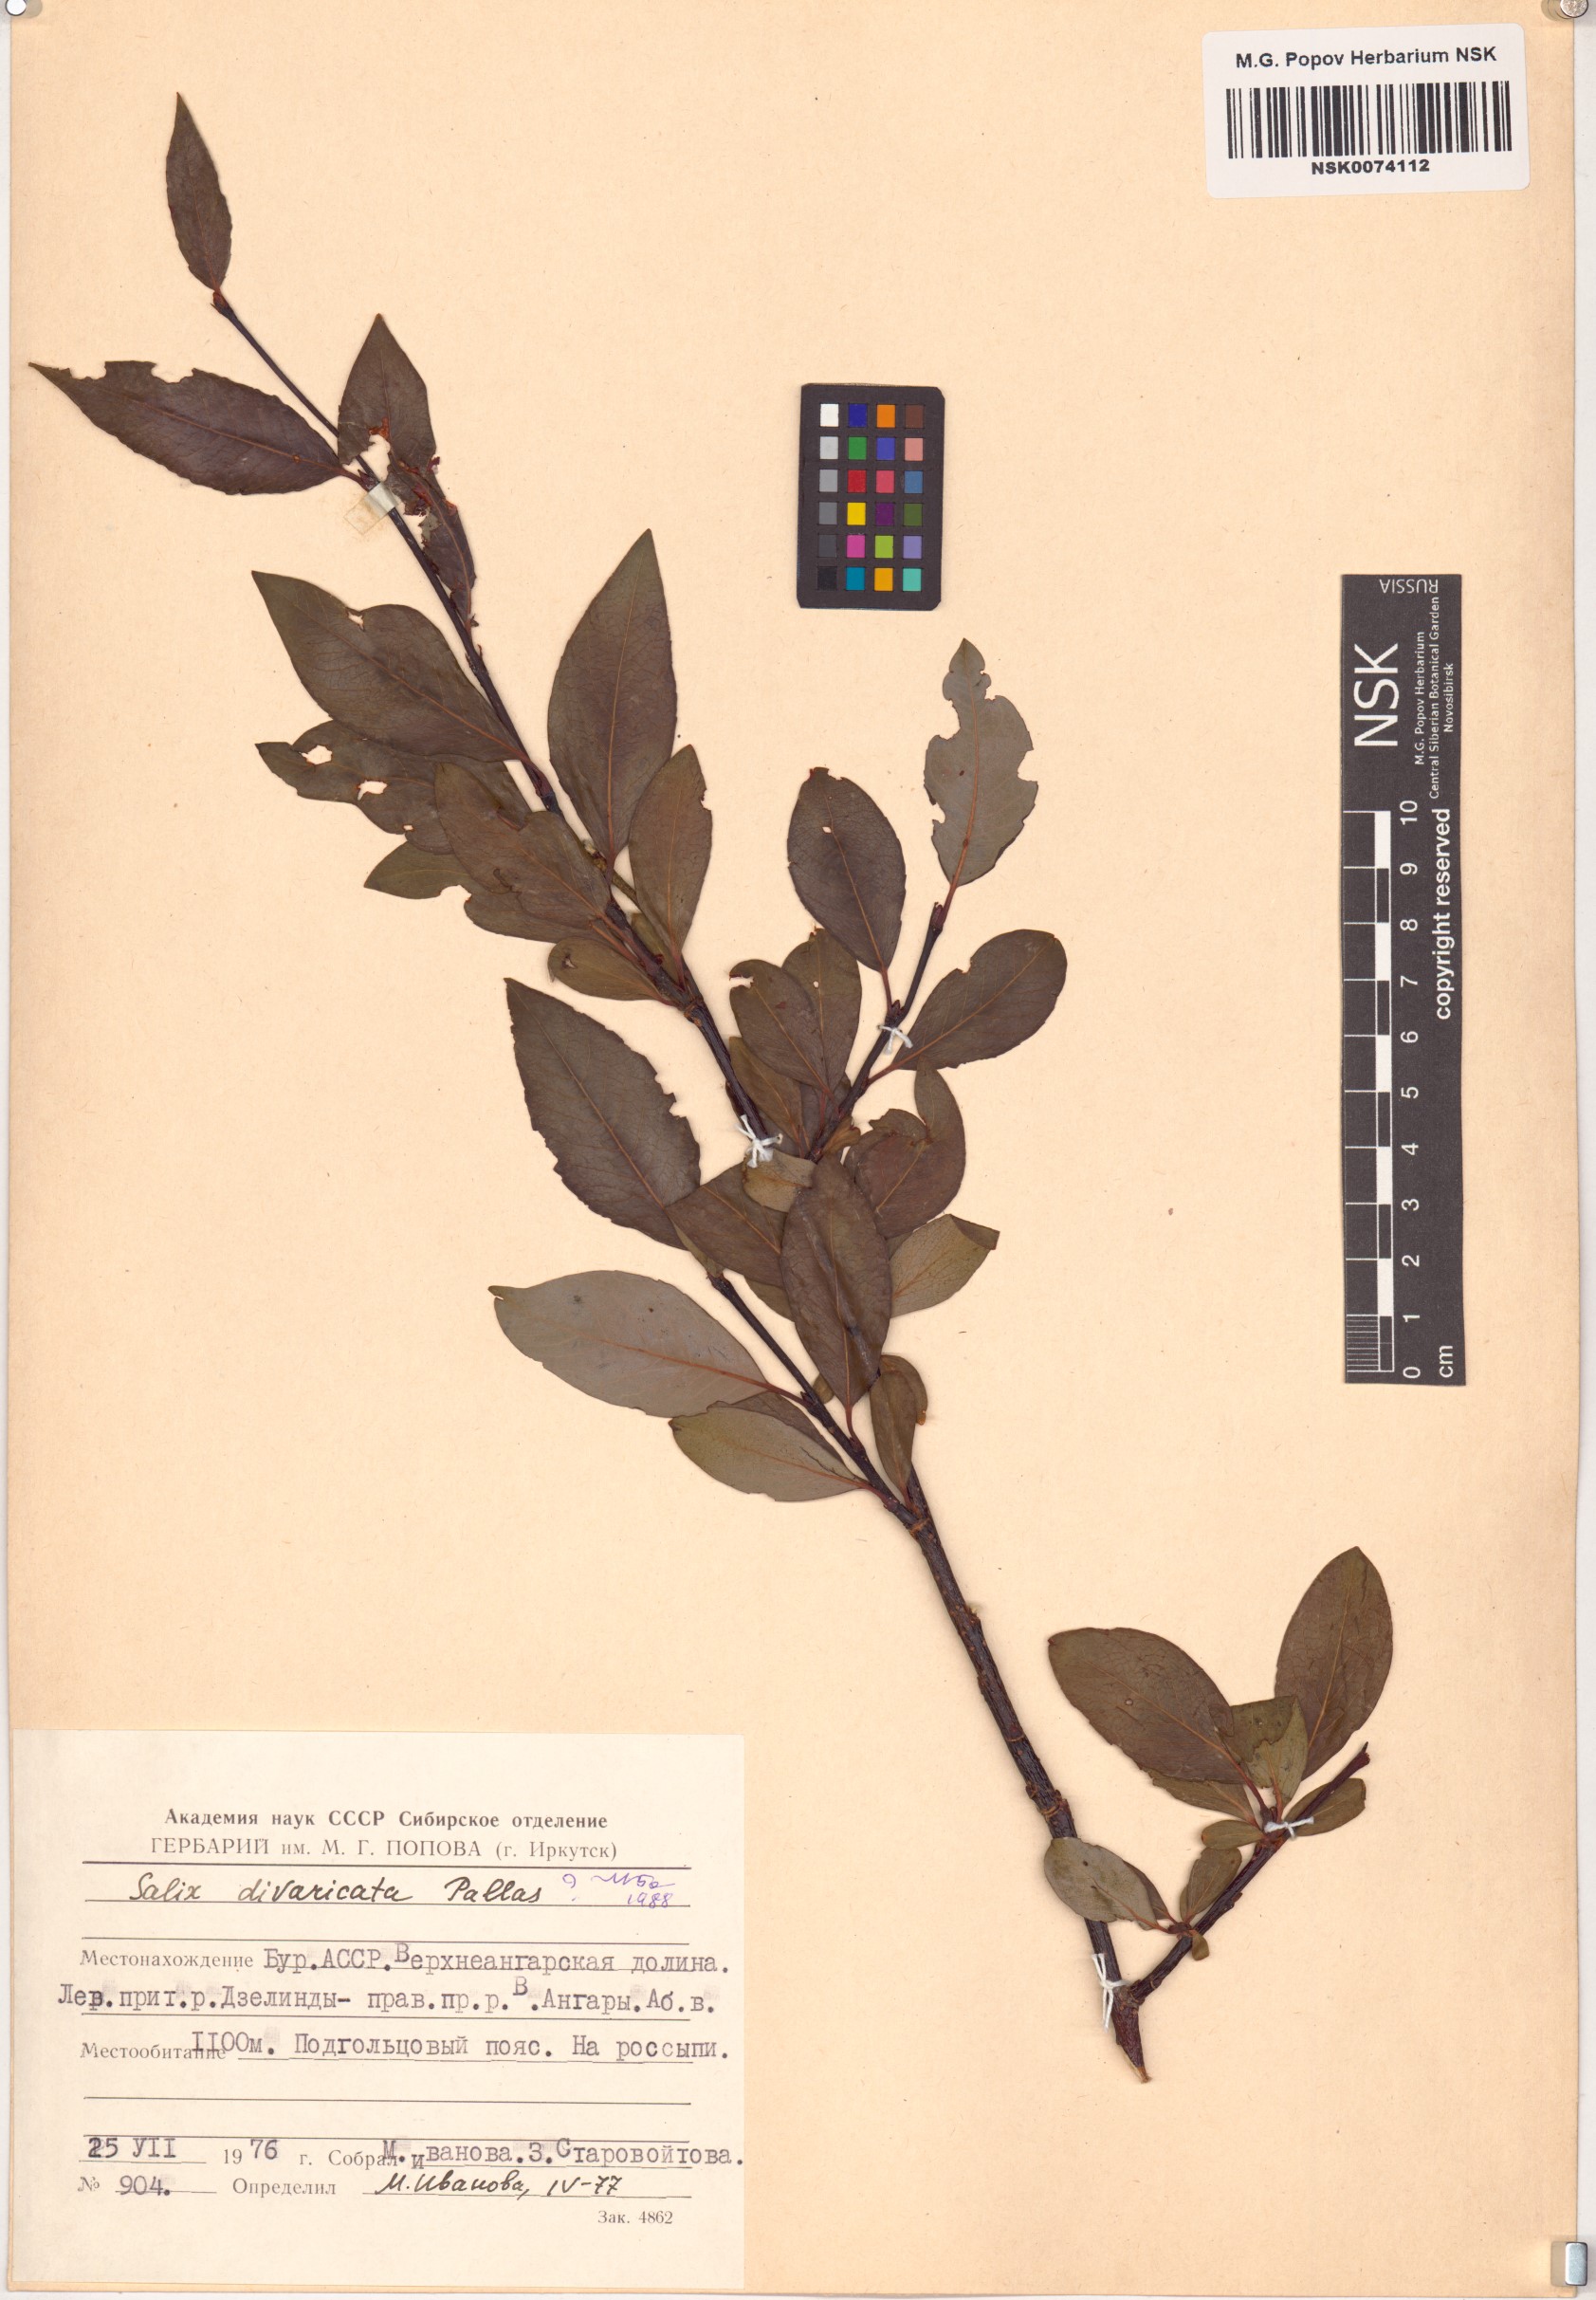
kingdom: Plantae
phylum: Tracheophyta
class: Magnoliopsida
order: Malpighiales
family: Salicaceae
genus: Salix
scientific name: Salix divaricata
